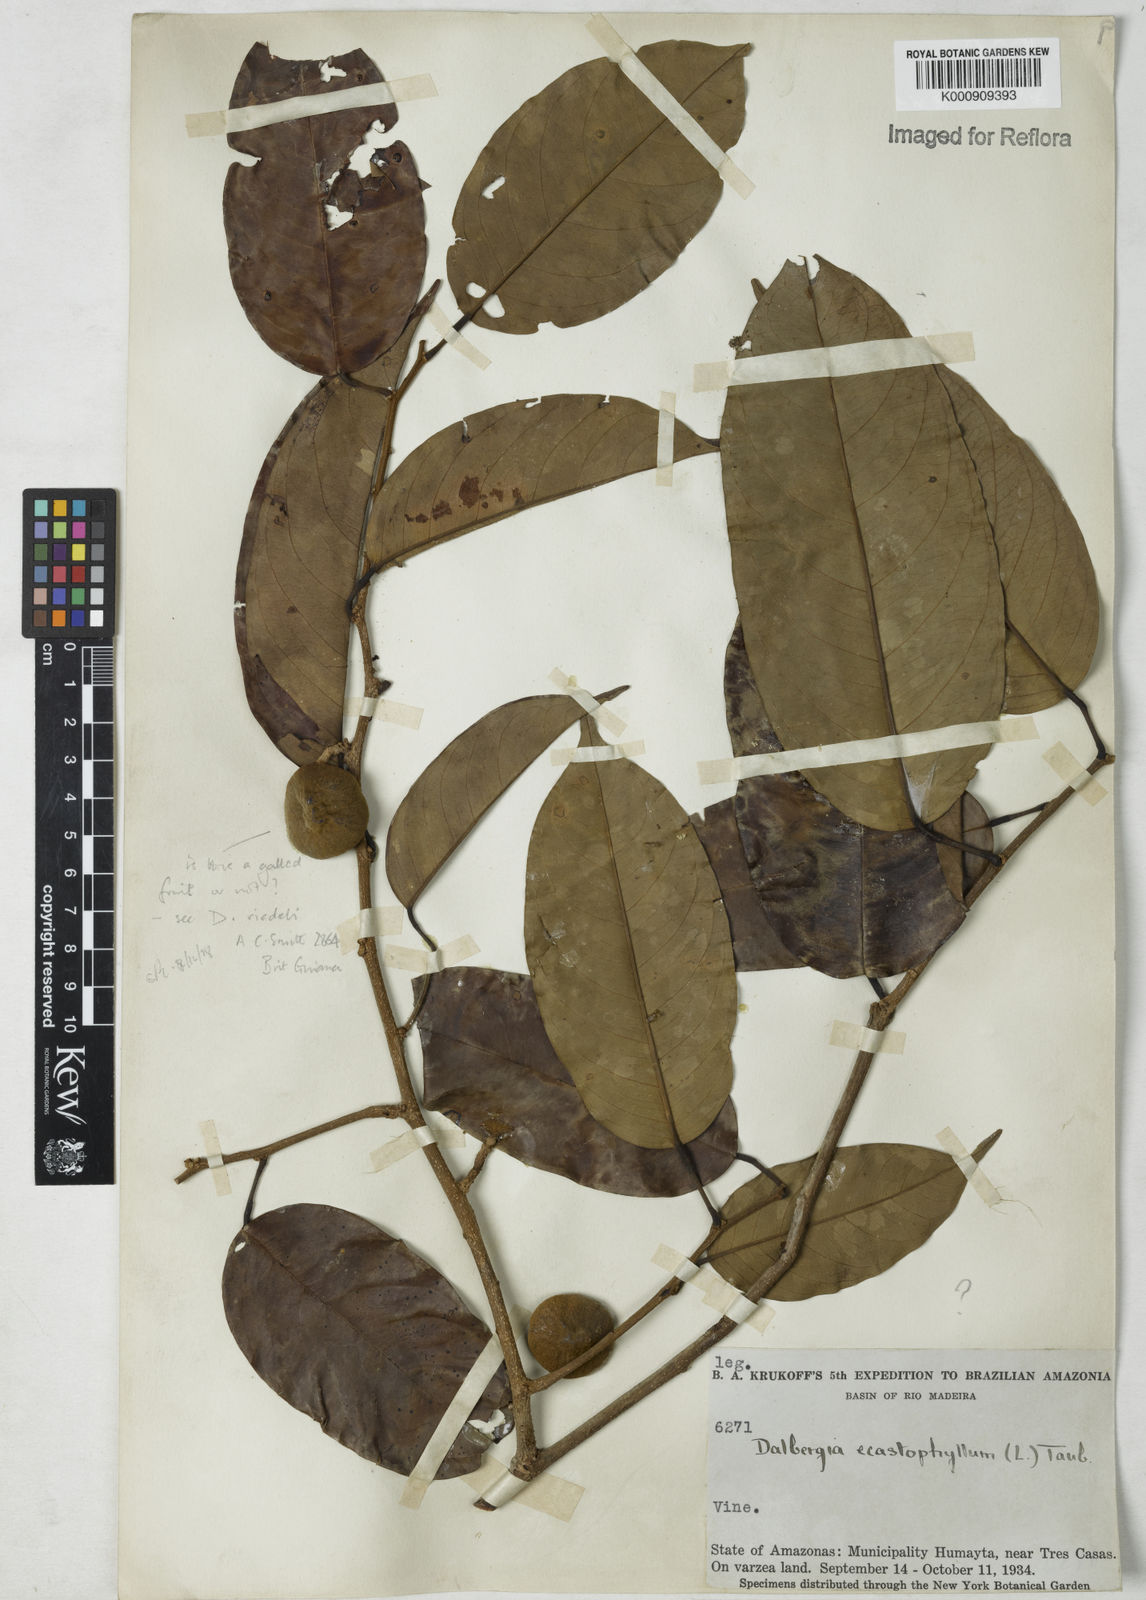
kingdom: Plantae
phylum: Tracheophyta
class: Magnoliopsida
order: Fabales
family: Fabaceae
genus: Dalbergia
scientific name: Dalbergia
